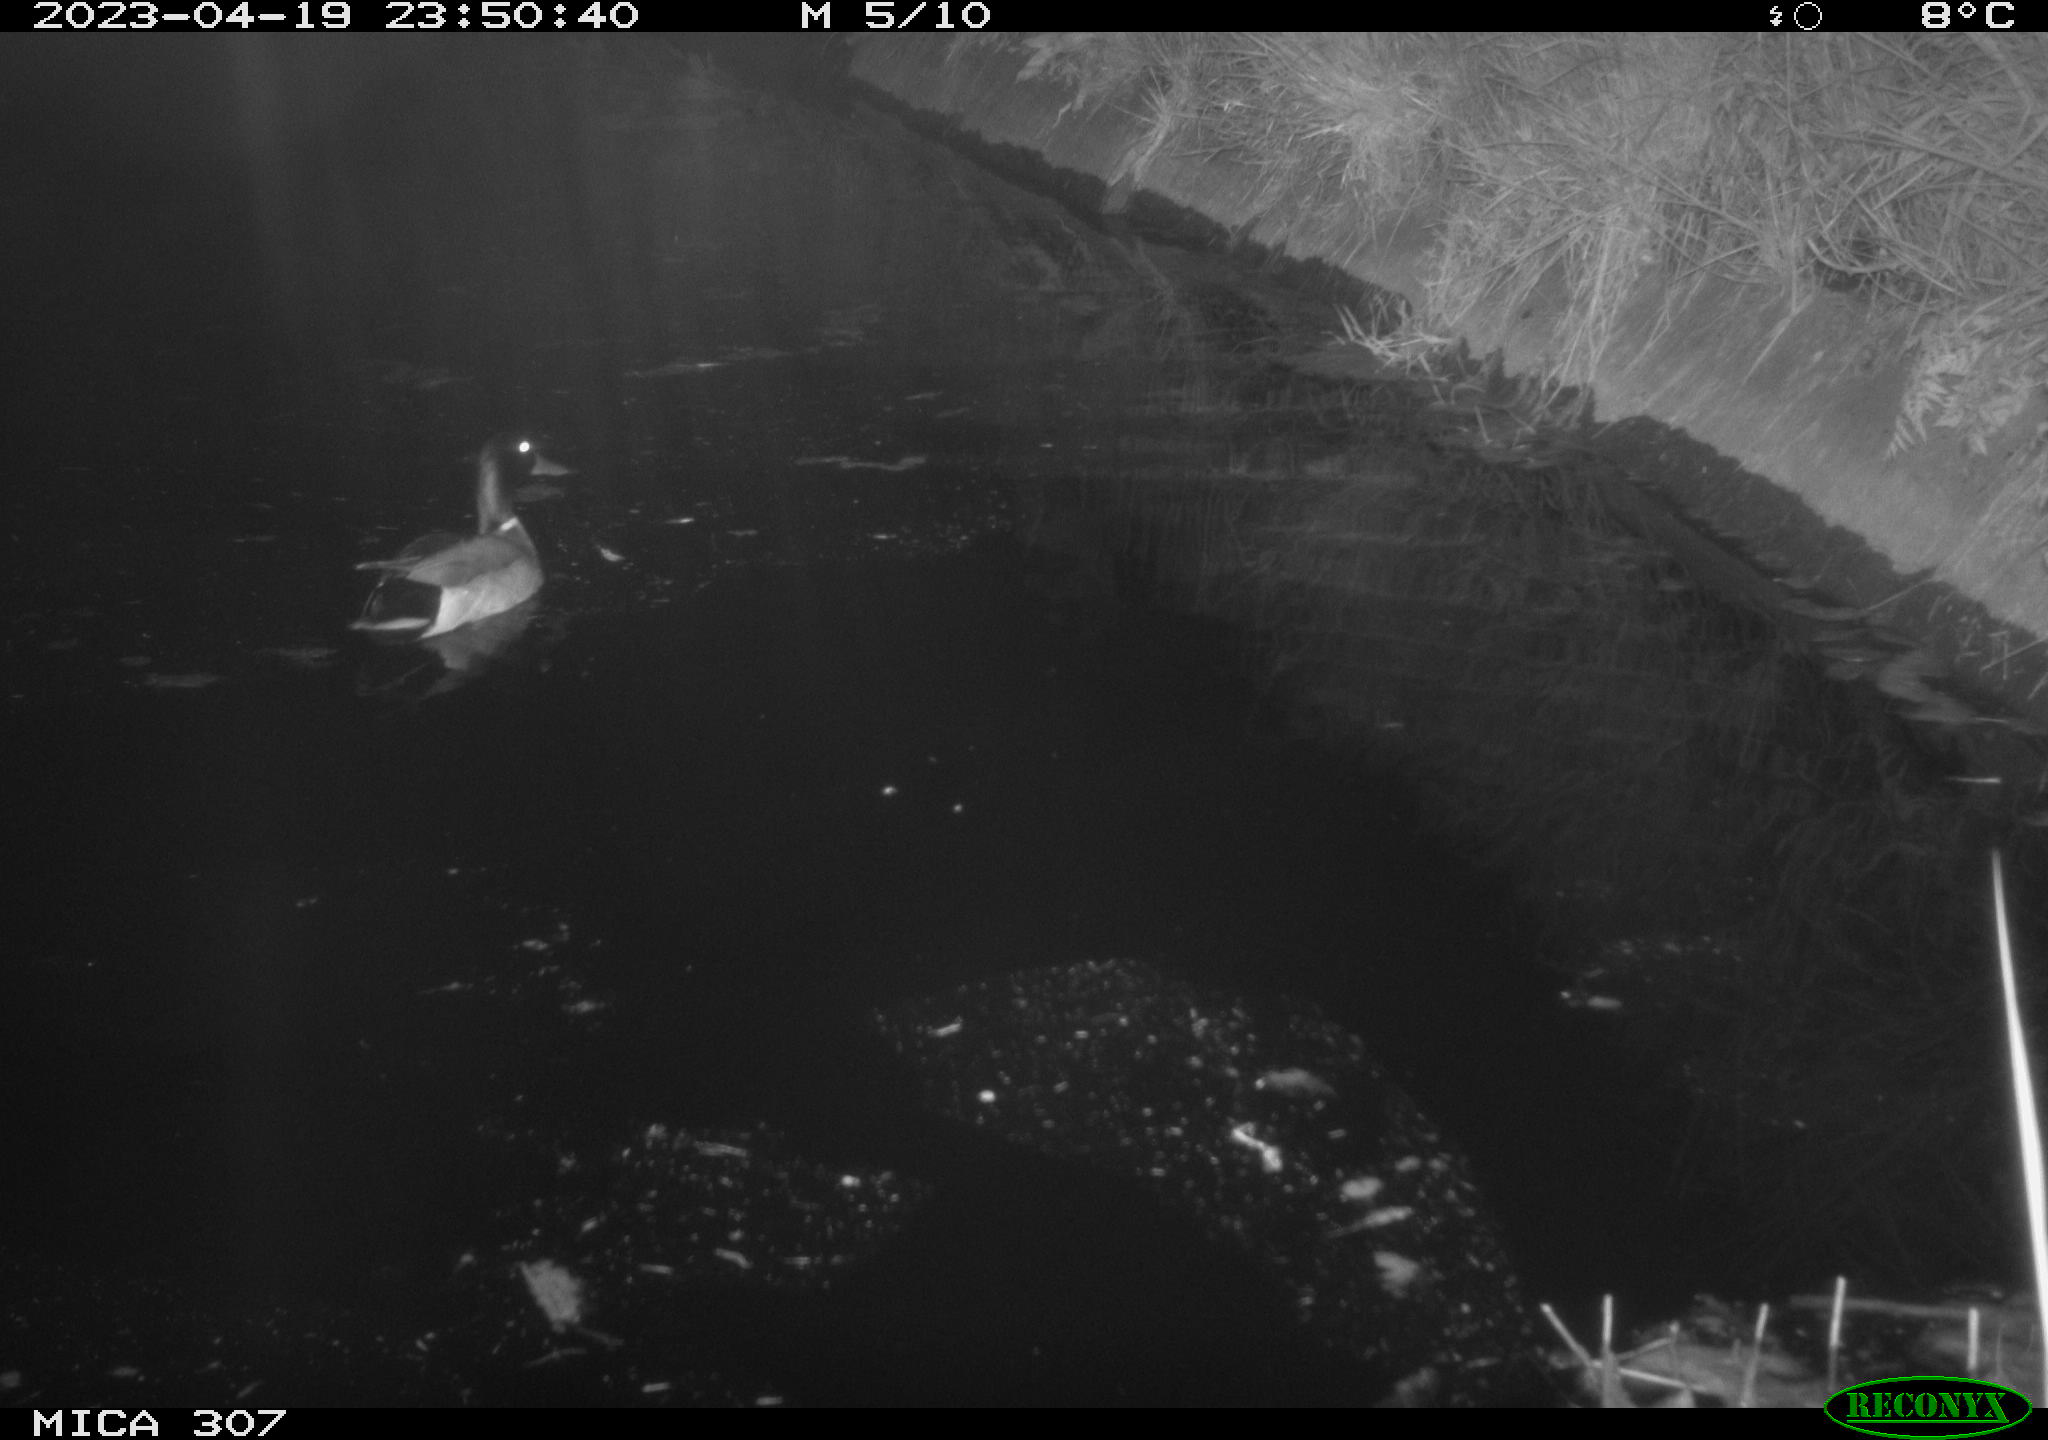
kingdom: Animalia
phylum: Chordata
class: Aves
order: Anseriformes
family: Anatidae
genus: Anas
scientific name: Anas
